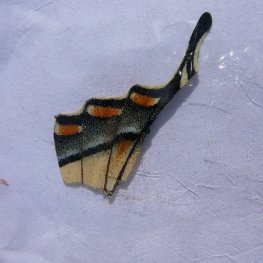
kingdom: Animalia
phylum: Arthropoda
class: Insecta
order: Lepidoptera
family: Papilionidae
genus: Pterourus
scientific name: Pterourus canadensis
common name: Canadian Tiger Swallowtail
